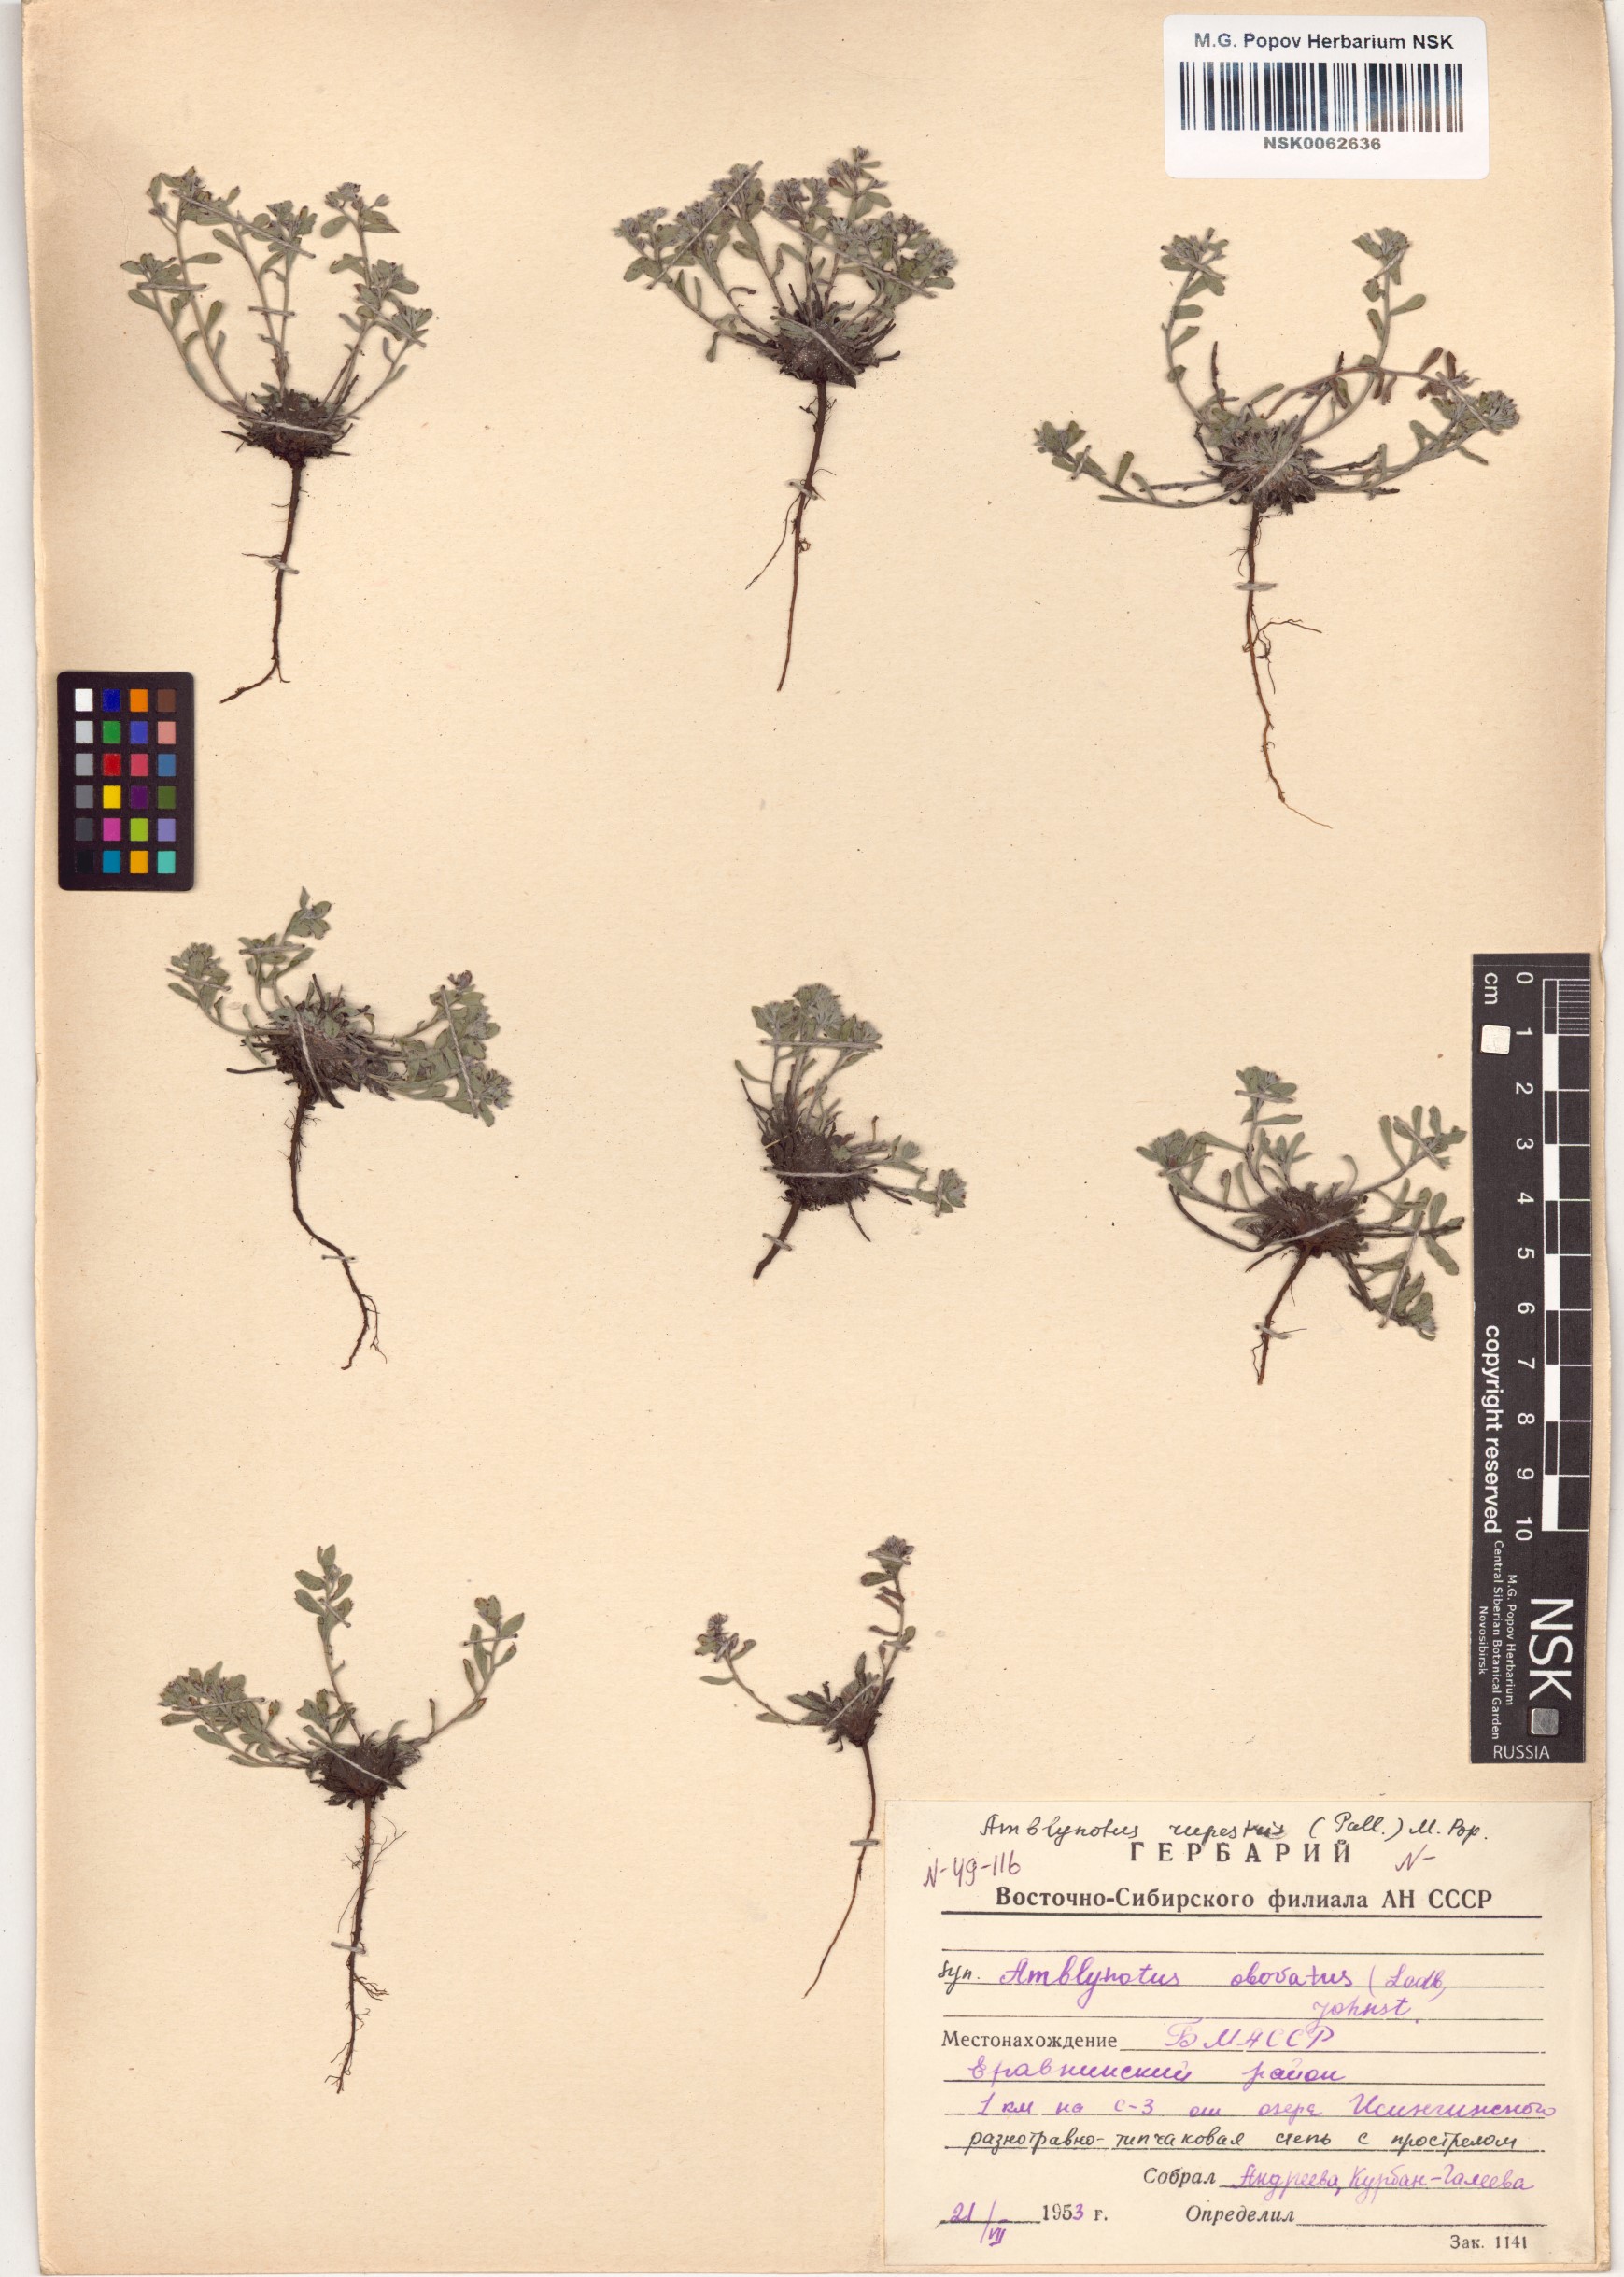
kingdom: Plantae
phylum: Tracheophyta
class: Magnoliopsida
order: Boraginales
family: Boraginaceae
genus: Eritrichium
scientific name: Eritrichium rupestre
